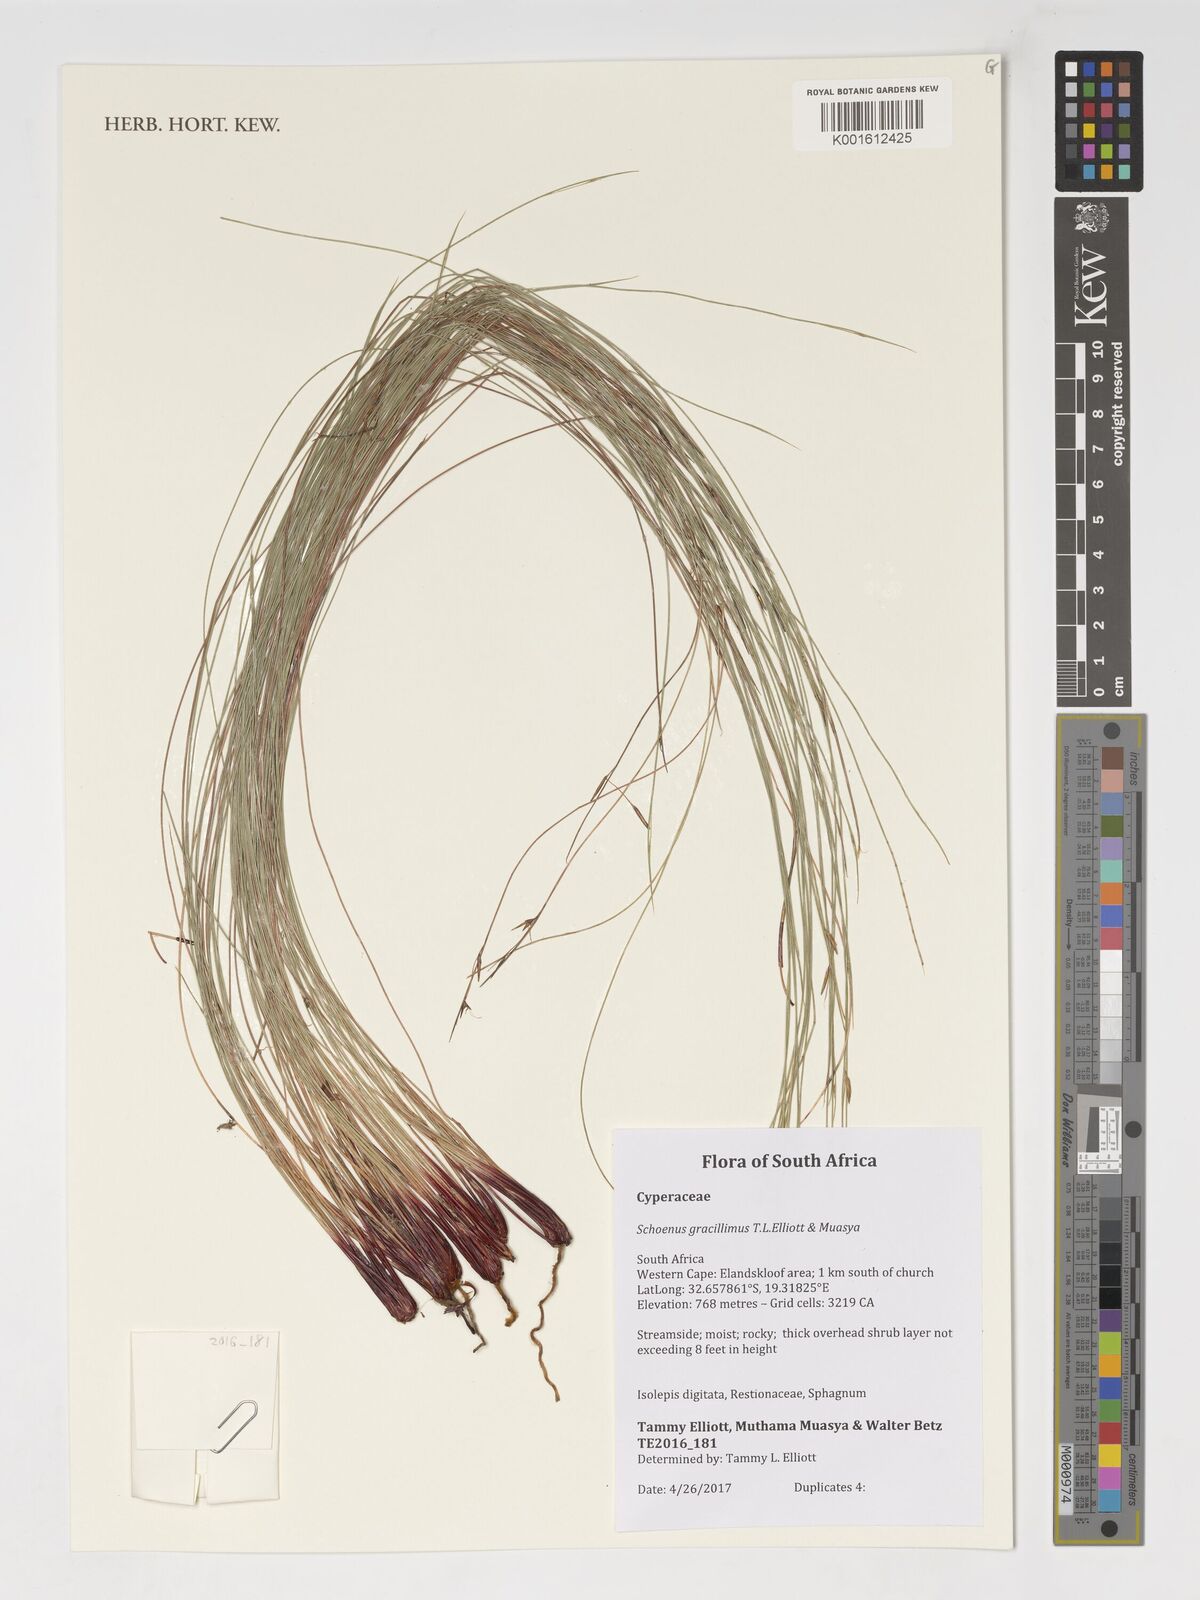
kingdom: Plantae
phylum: Tracheophyta
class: Liliopsida
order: Poales
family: Cyperaceae
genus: Schoenus
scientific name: Schoenus
